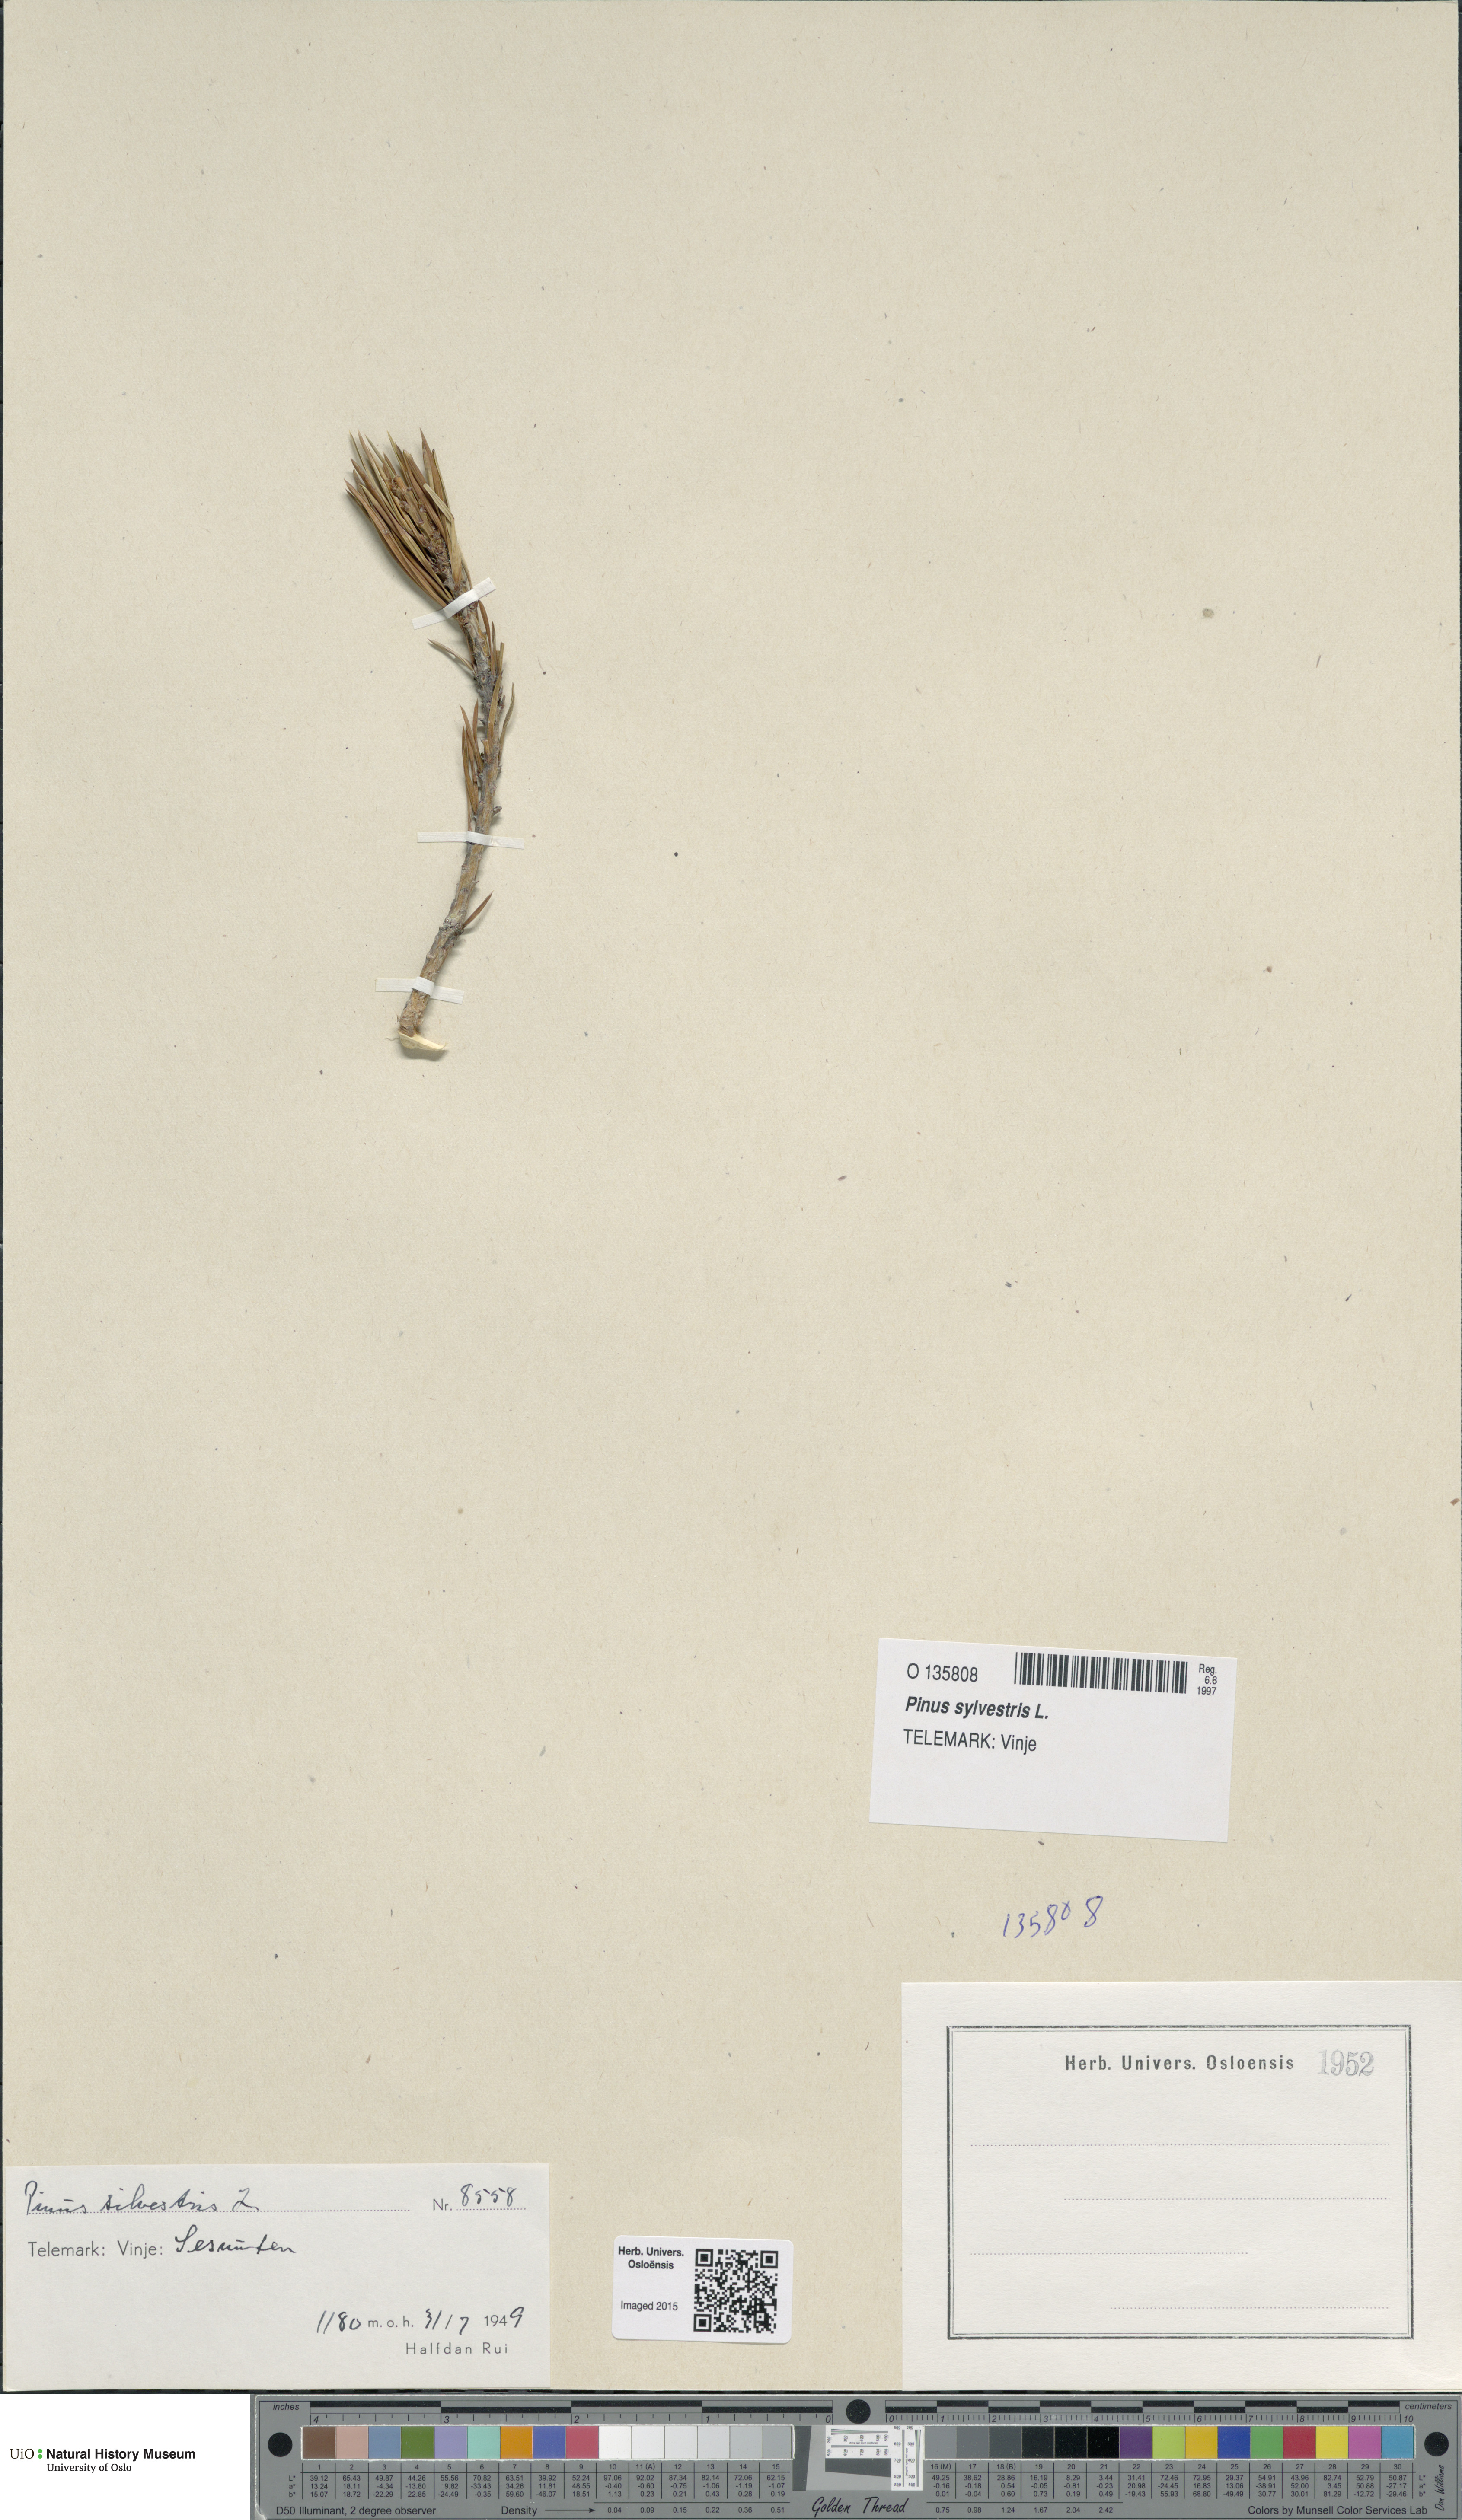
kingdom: Plantae
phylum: Tracheophyta
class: Pinopsida
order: Pinales
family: Pinaceae
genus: Pinus
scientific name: Pinus sylvestris
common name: Scots pine
